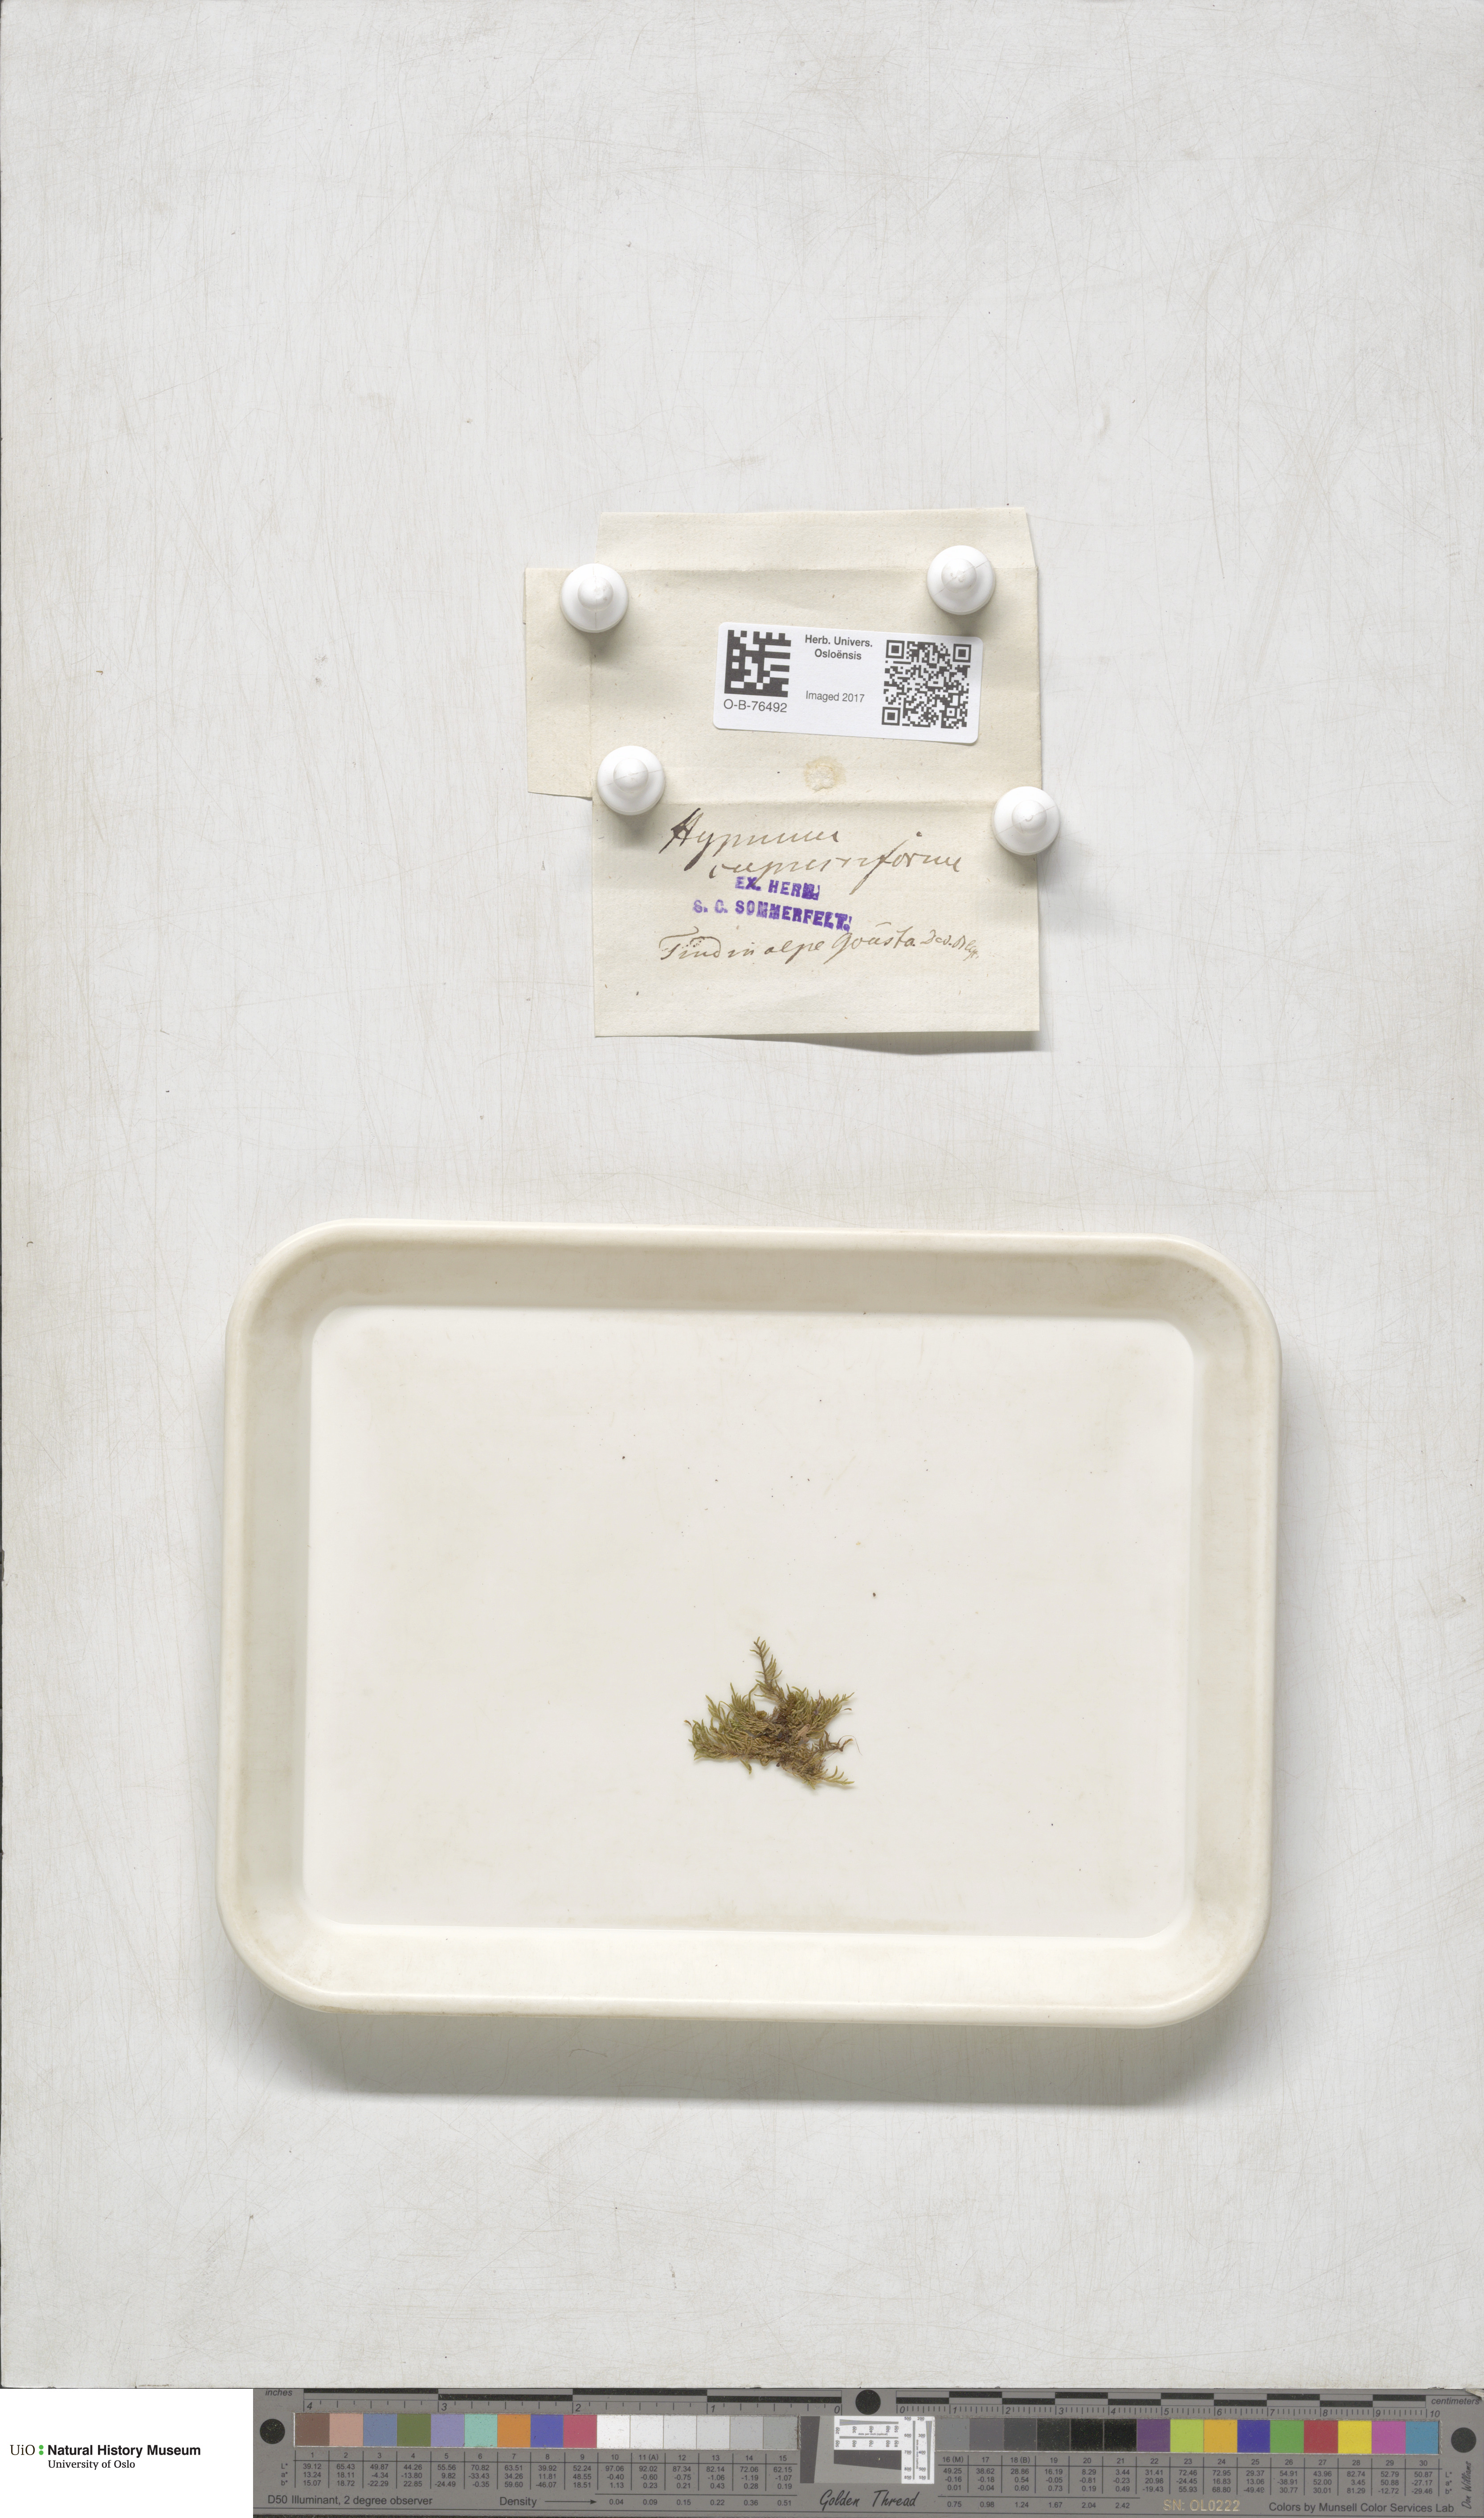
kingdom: Plantae
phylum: Bryophyta
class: Bryopsida
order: Hypnales
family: Hypnaceae
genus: Hypnum
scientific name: Hypnum cupressiforme
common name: Cypress-leaved plait-moss
